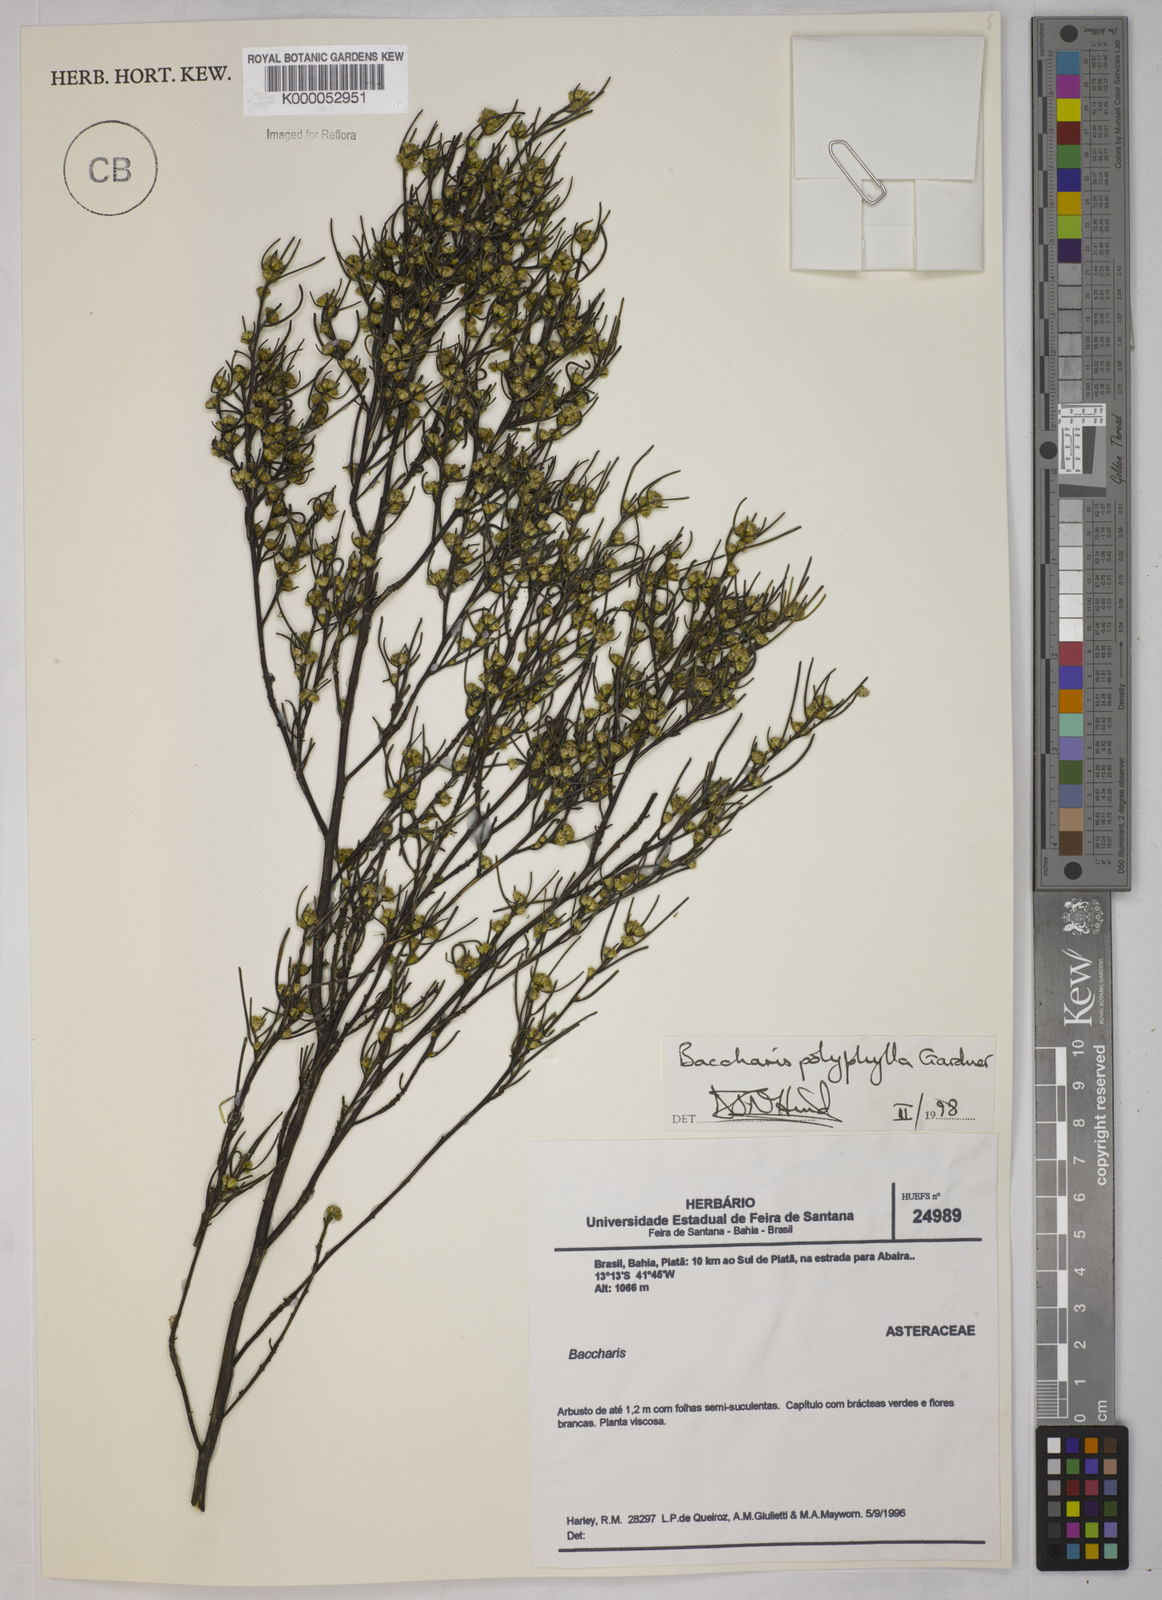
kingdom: Plantae
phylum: Tracheophyta
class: Magnoliopsida
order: Asterales
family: Asteraceae
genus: Baccharis
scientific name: Baccharis polyphylla
